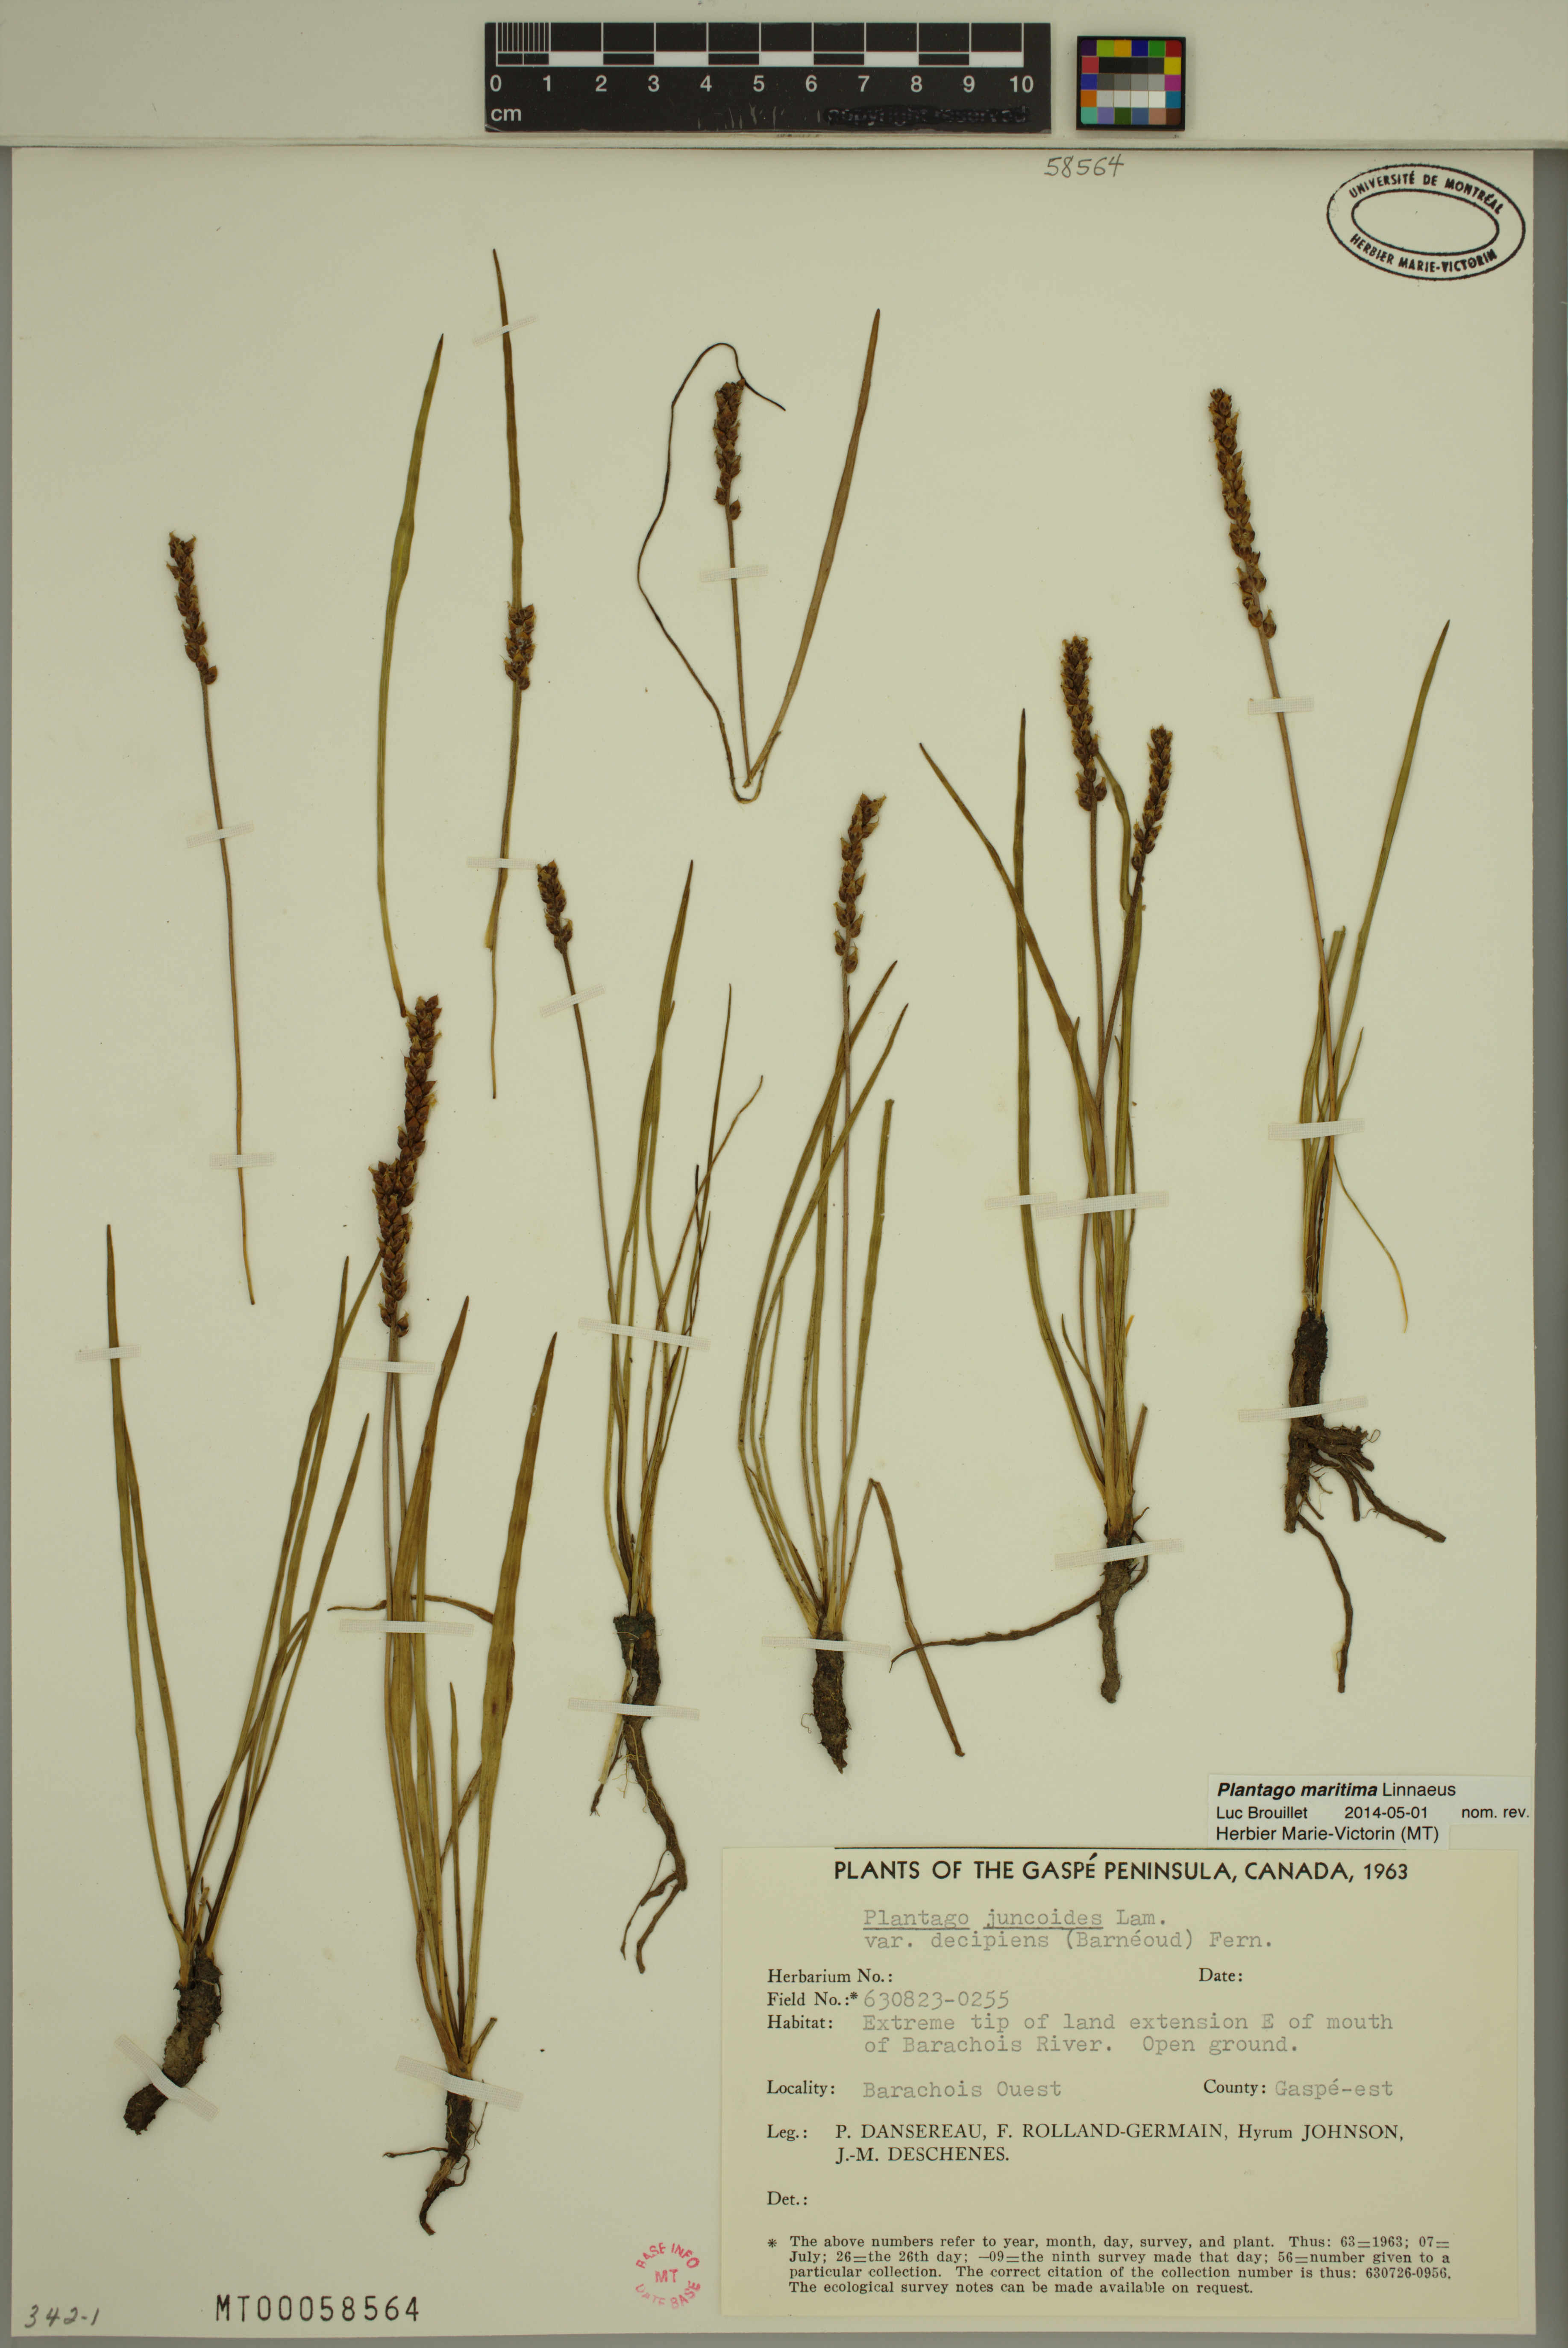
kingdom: Plantae
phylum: Tracheophyta
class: Magnoliopsida
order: Lamiales
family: Plantaginaceae
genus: Plantago
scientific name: Plantago maritima
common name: Sea plantain
